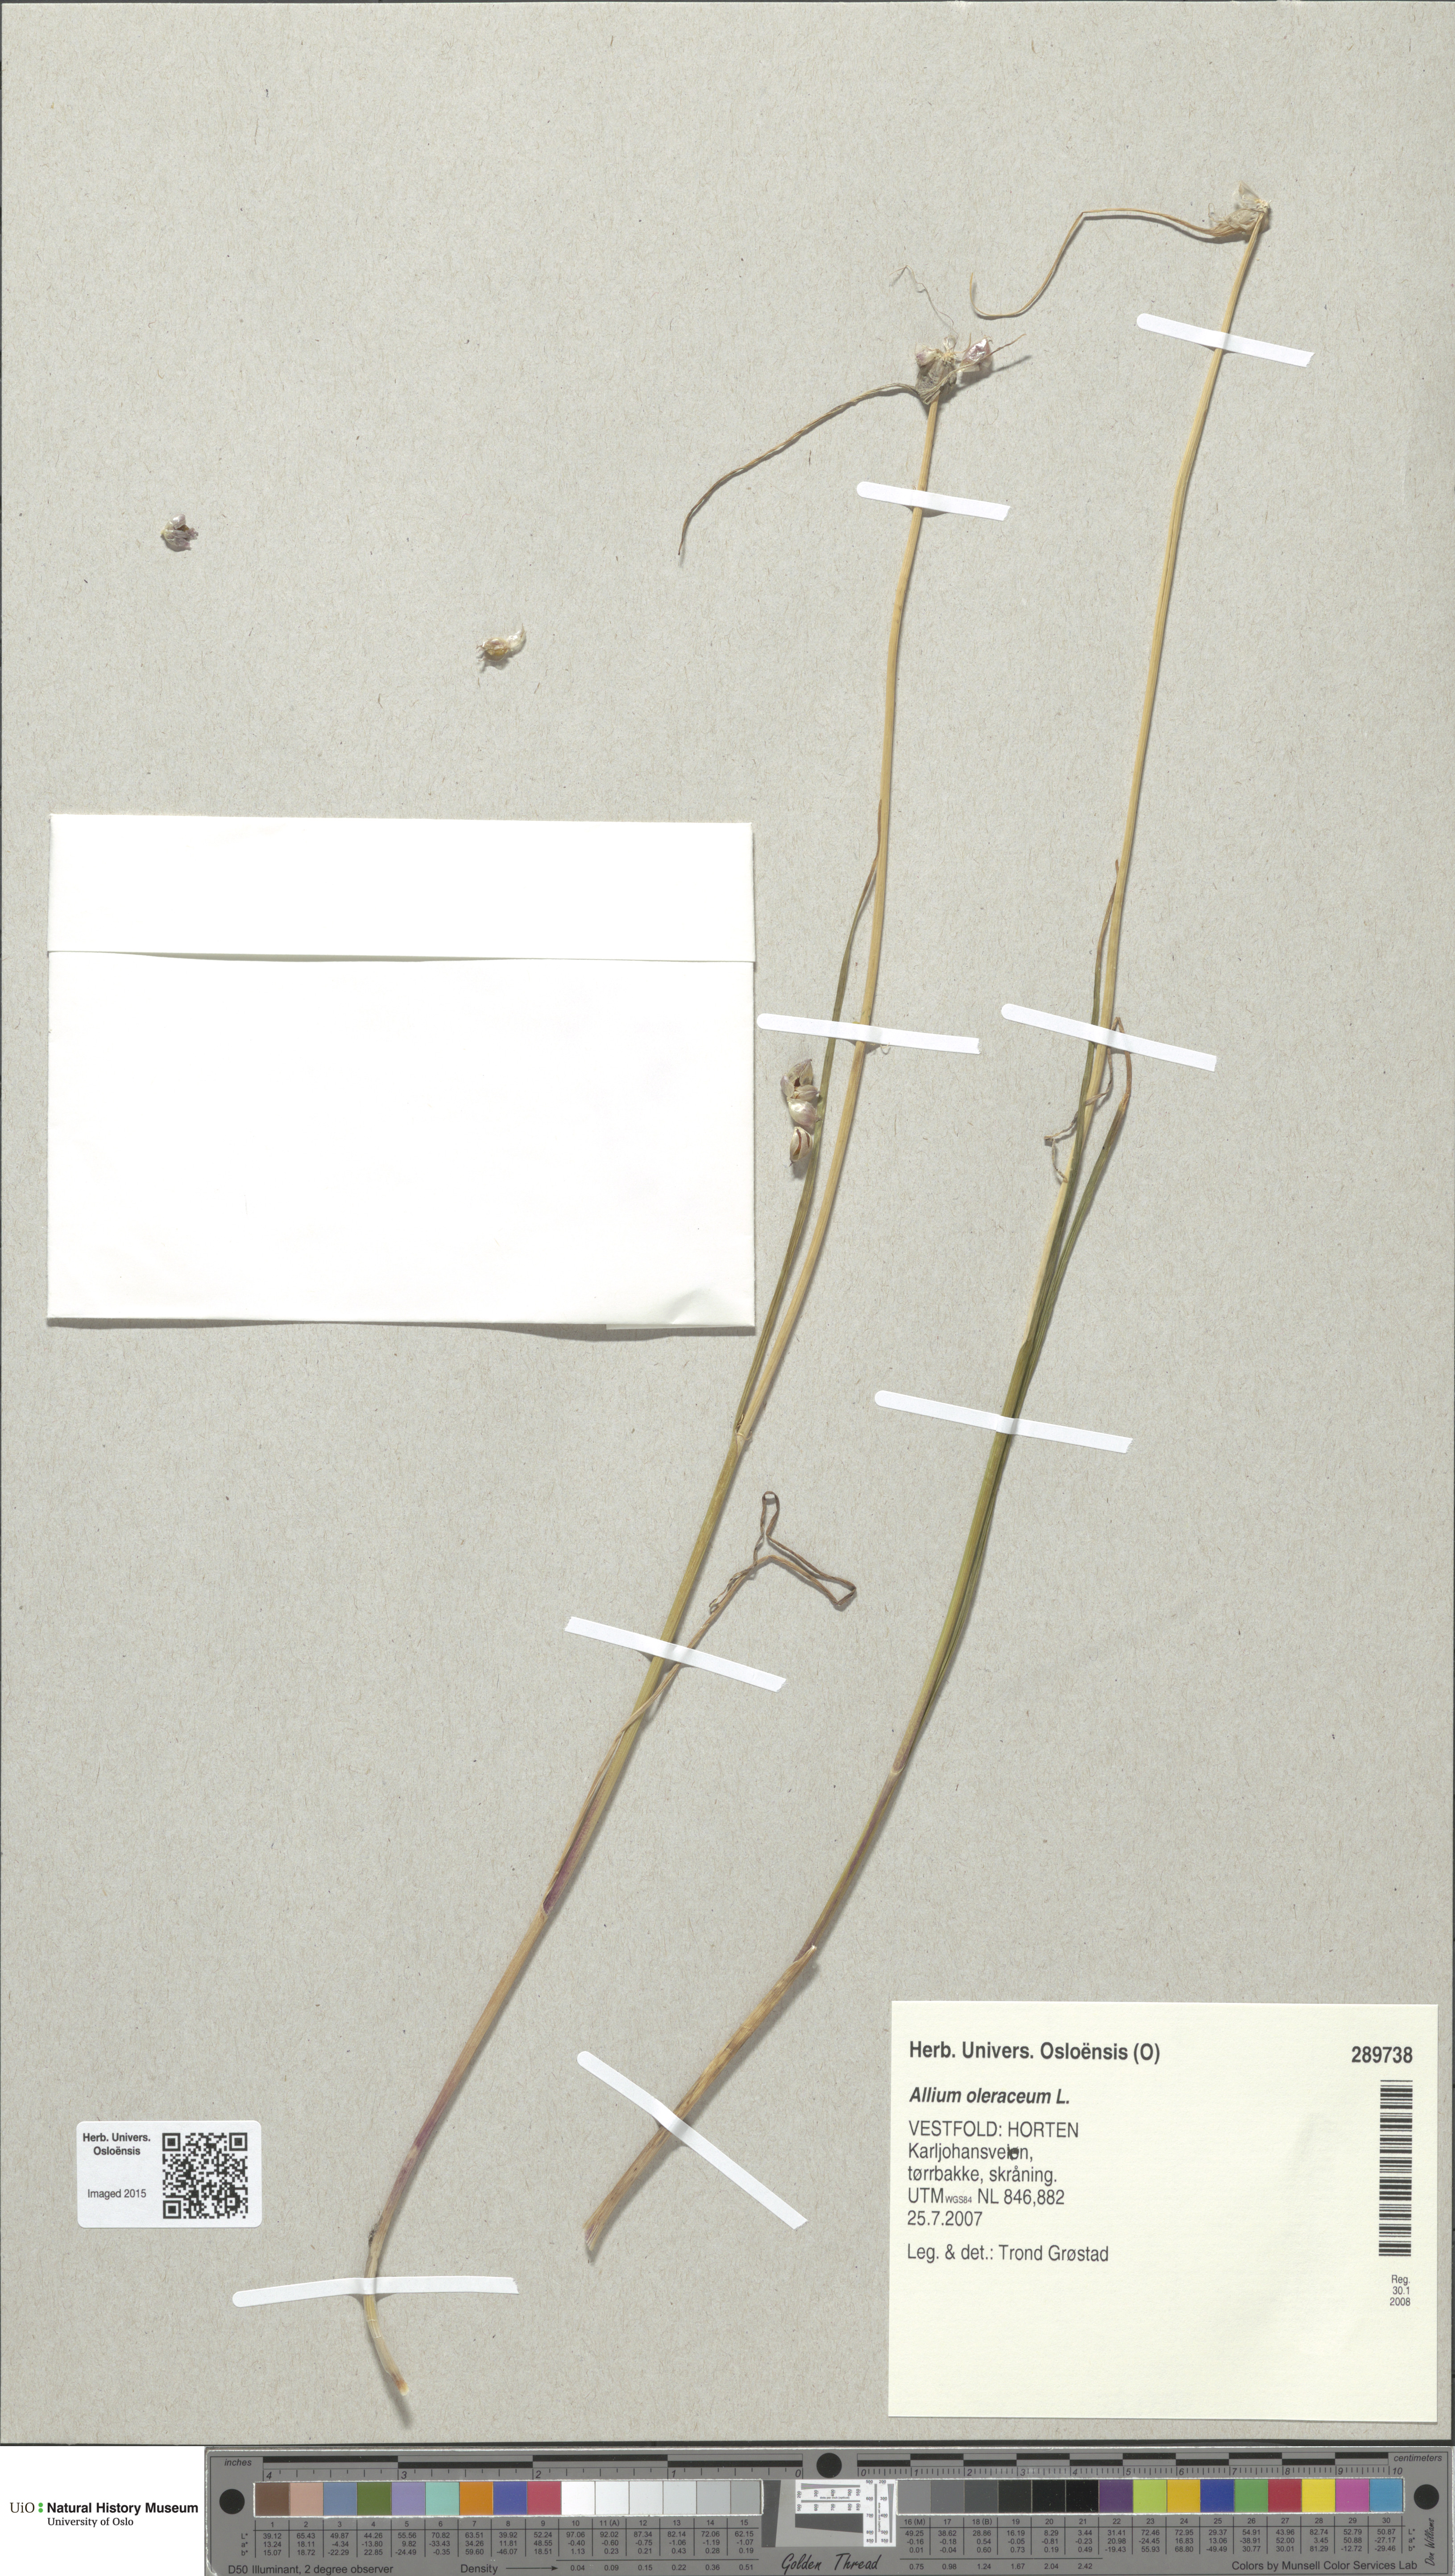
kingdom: Plantae
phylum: Tracheophyta
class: Liliopsida
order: Asparagales
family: Amaryllidaceae
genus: Allium
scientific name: Allium oleraceum
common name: Field garlic
